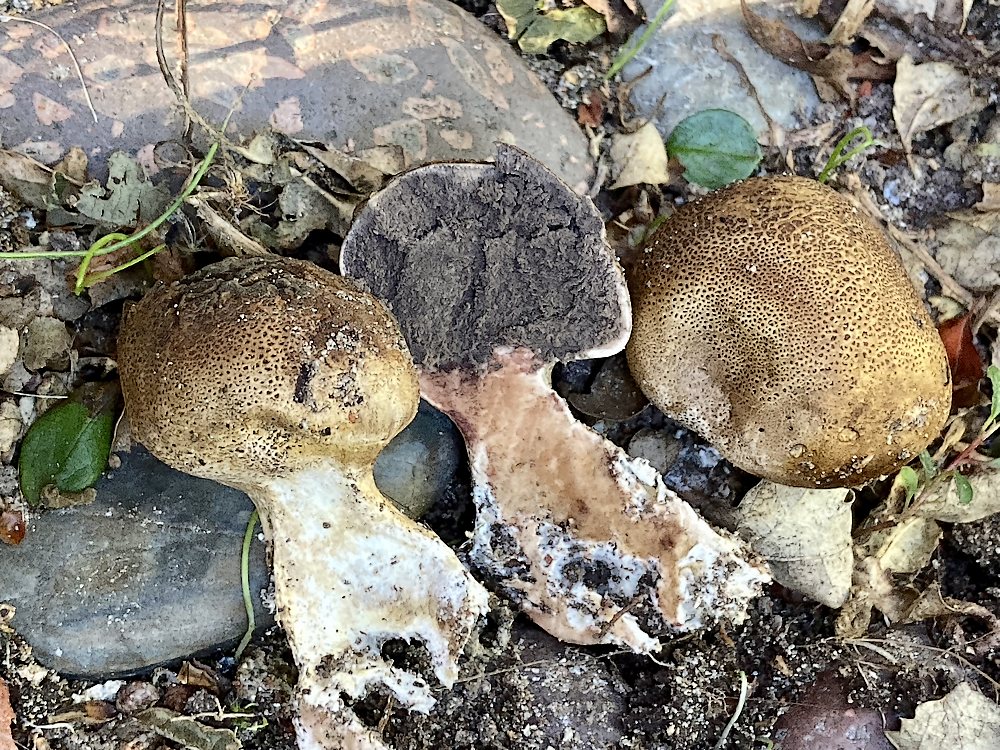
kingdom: Fungi
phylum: Basidiomycota
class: Agaricomycetes
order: Boletales
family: Sclerodermataceae
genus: Scleroderma
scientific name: Scleroderma verrucosum
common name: stilket bruskbold
